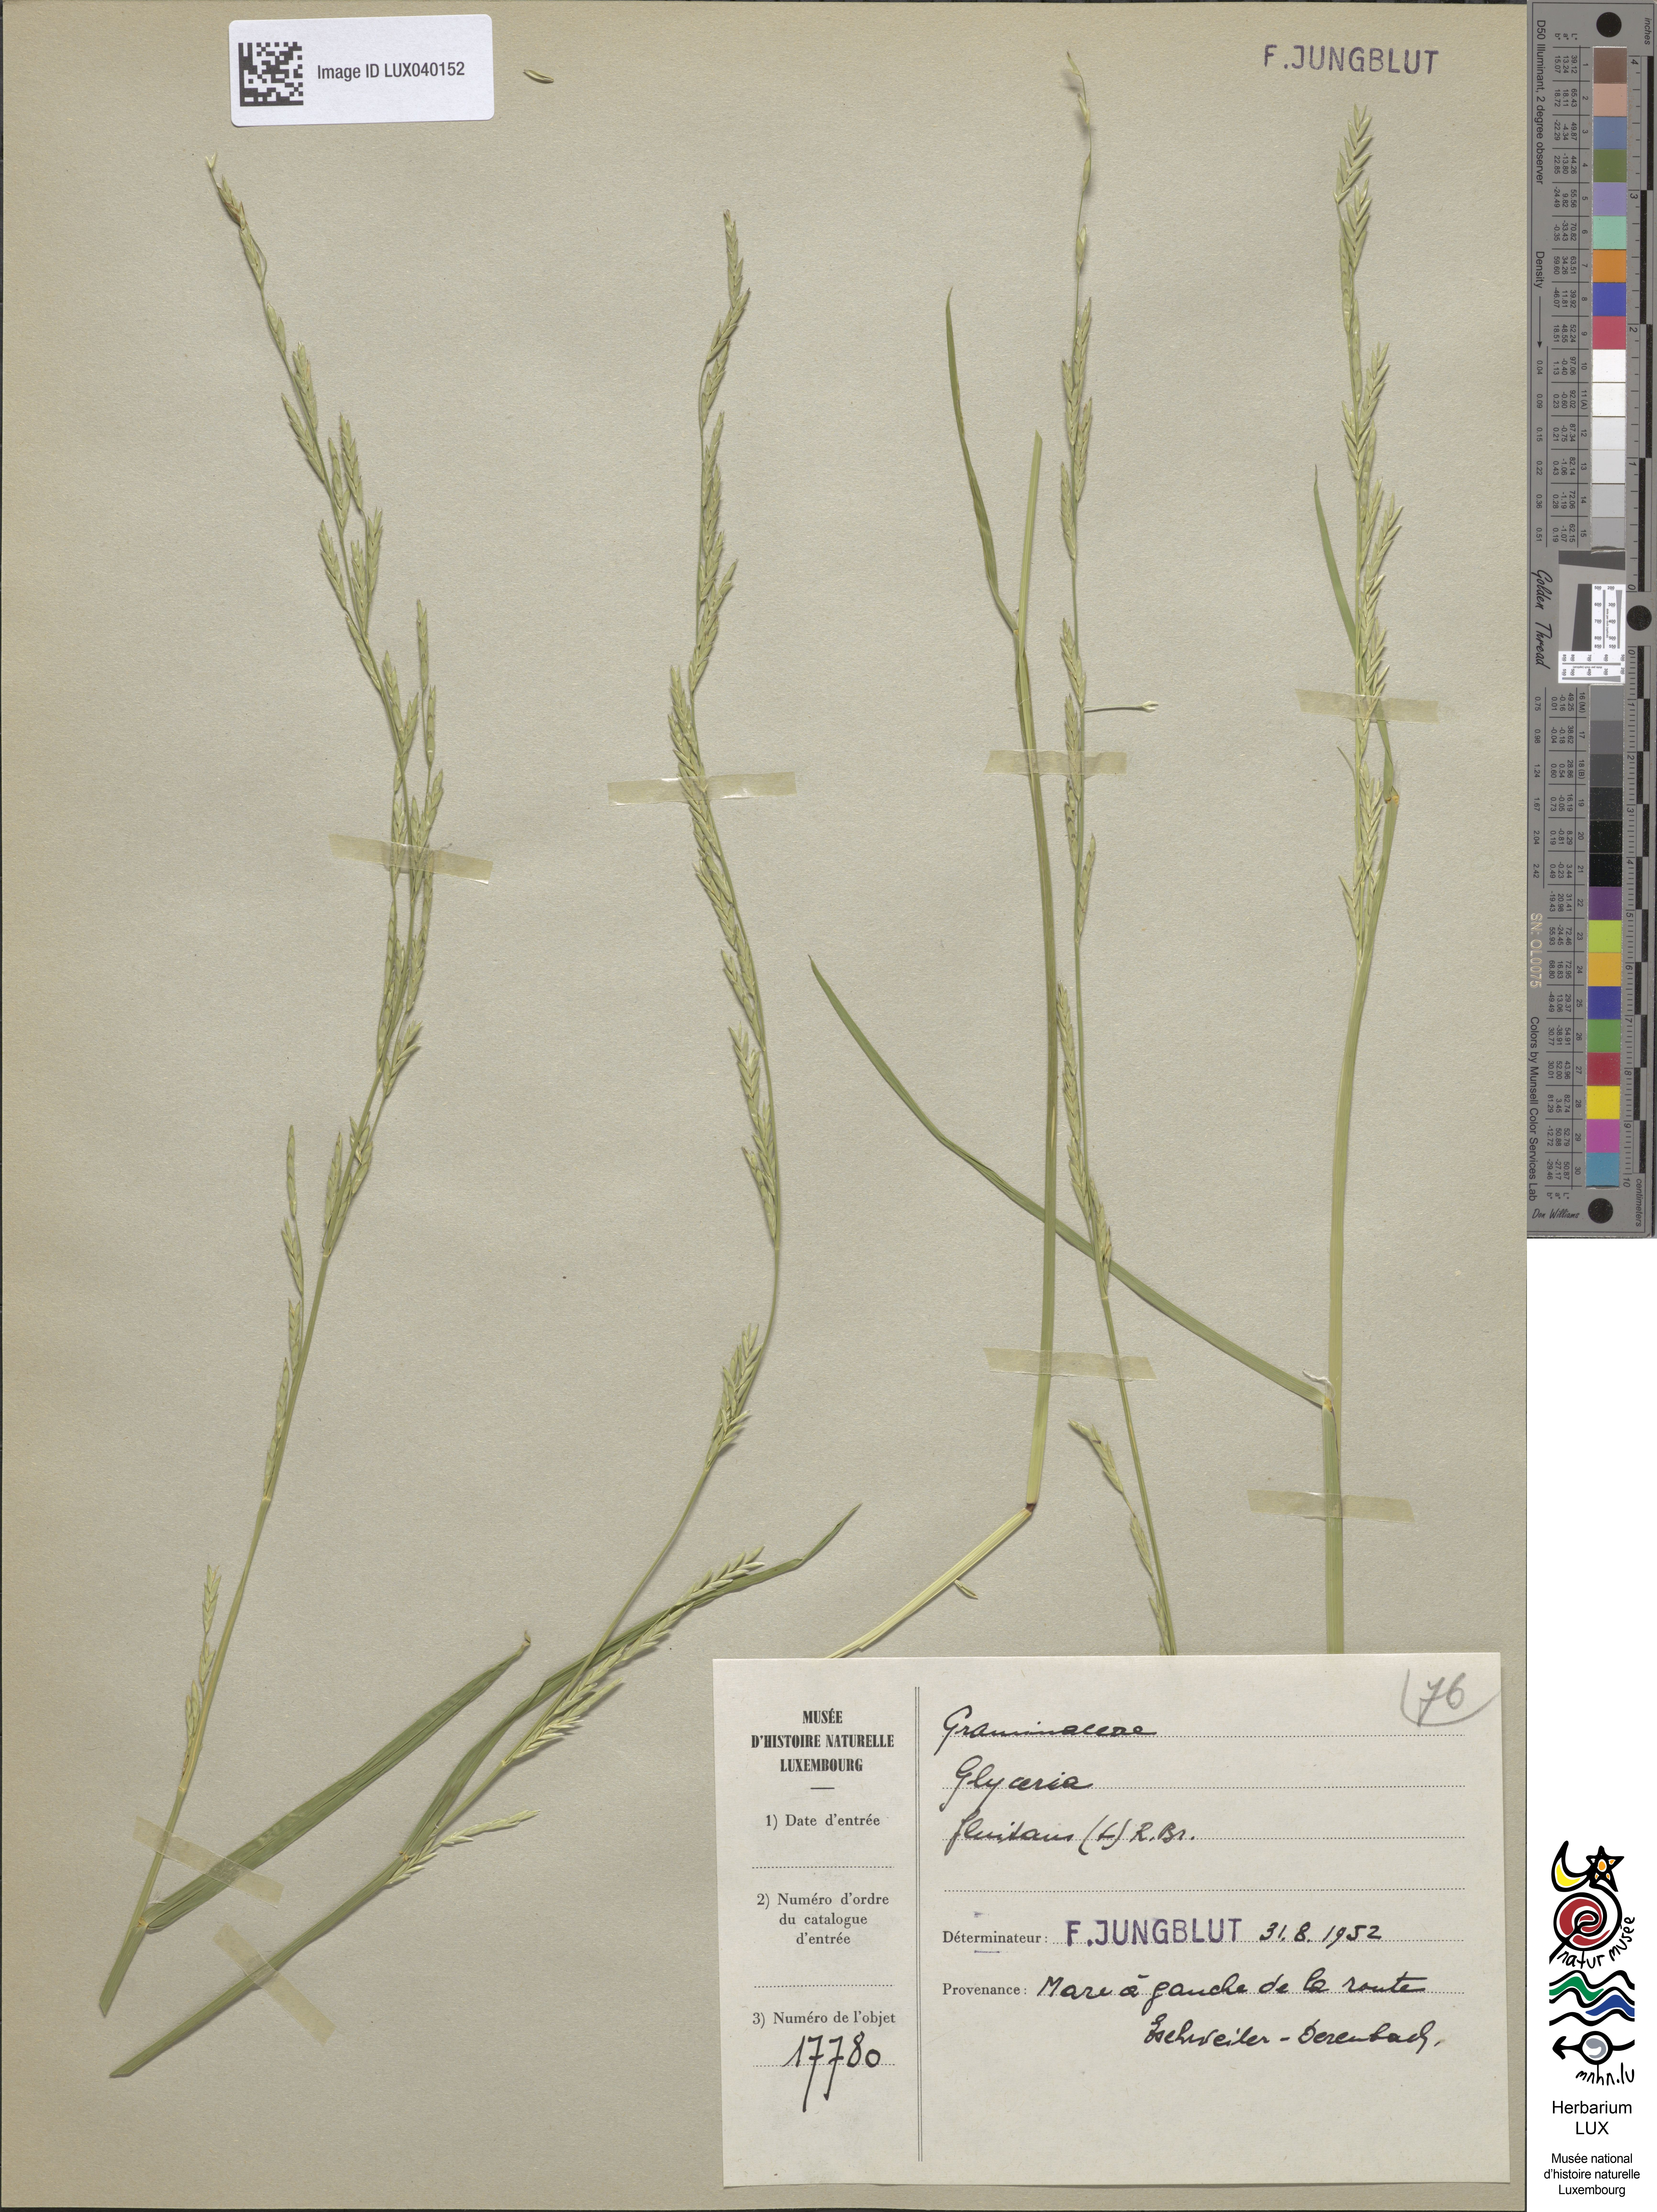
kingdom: Plantae
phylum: Tracheophyta
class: Liliopsida
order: Poales
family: Poaceae
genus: Glyceria
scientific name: Glyceria fluitans
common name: Floating sweet-grass
